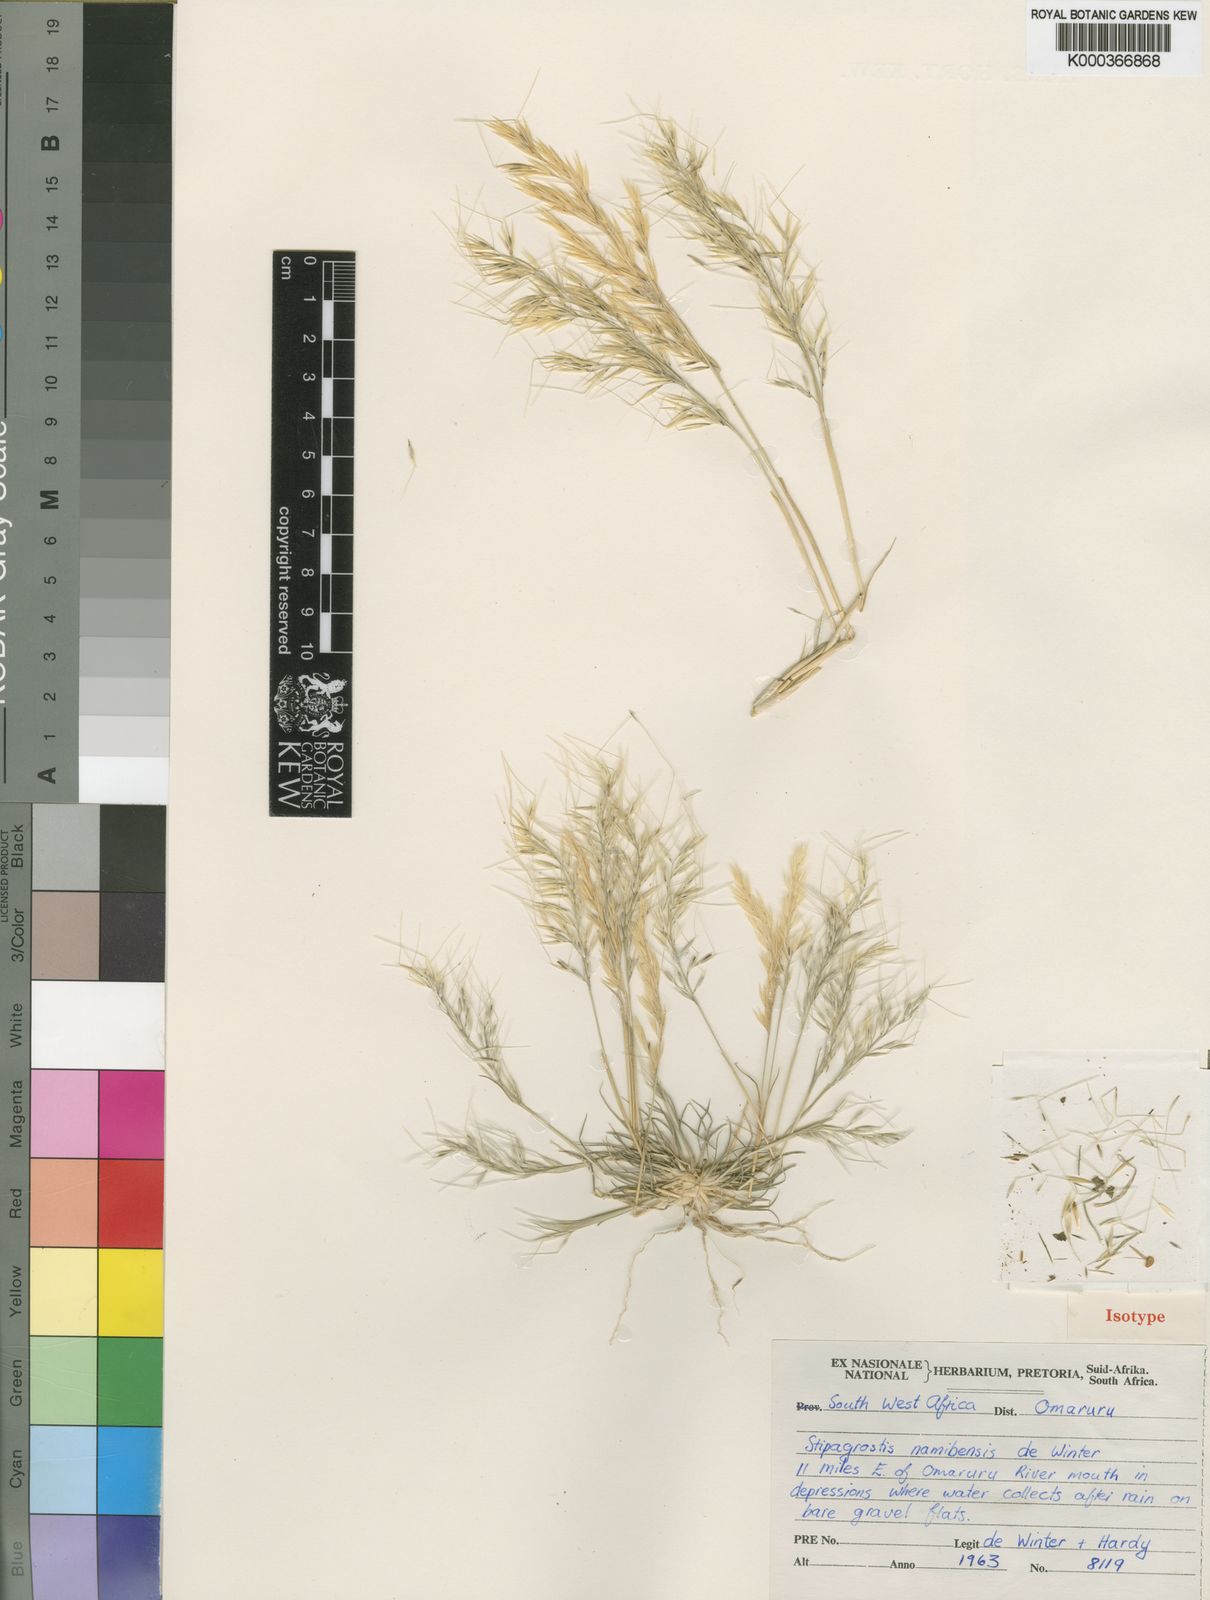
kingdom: Plantae
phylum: Tracheophyta
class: Liliopsida
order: Poales
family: Poaceae
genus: Stipagrostis
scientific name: Stipagrostis namibensis
